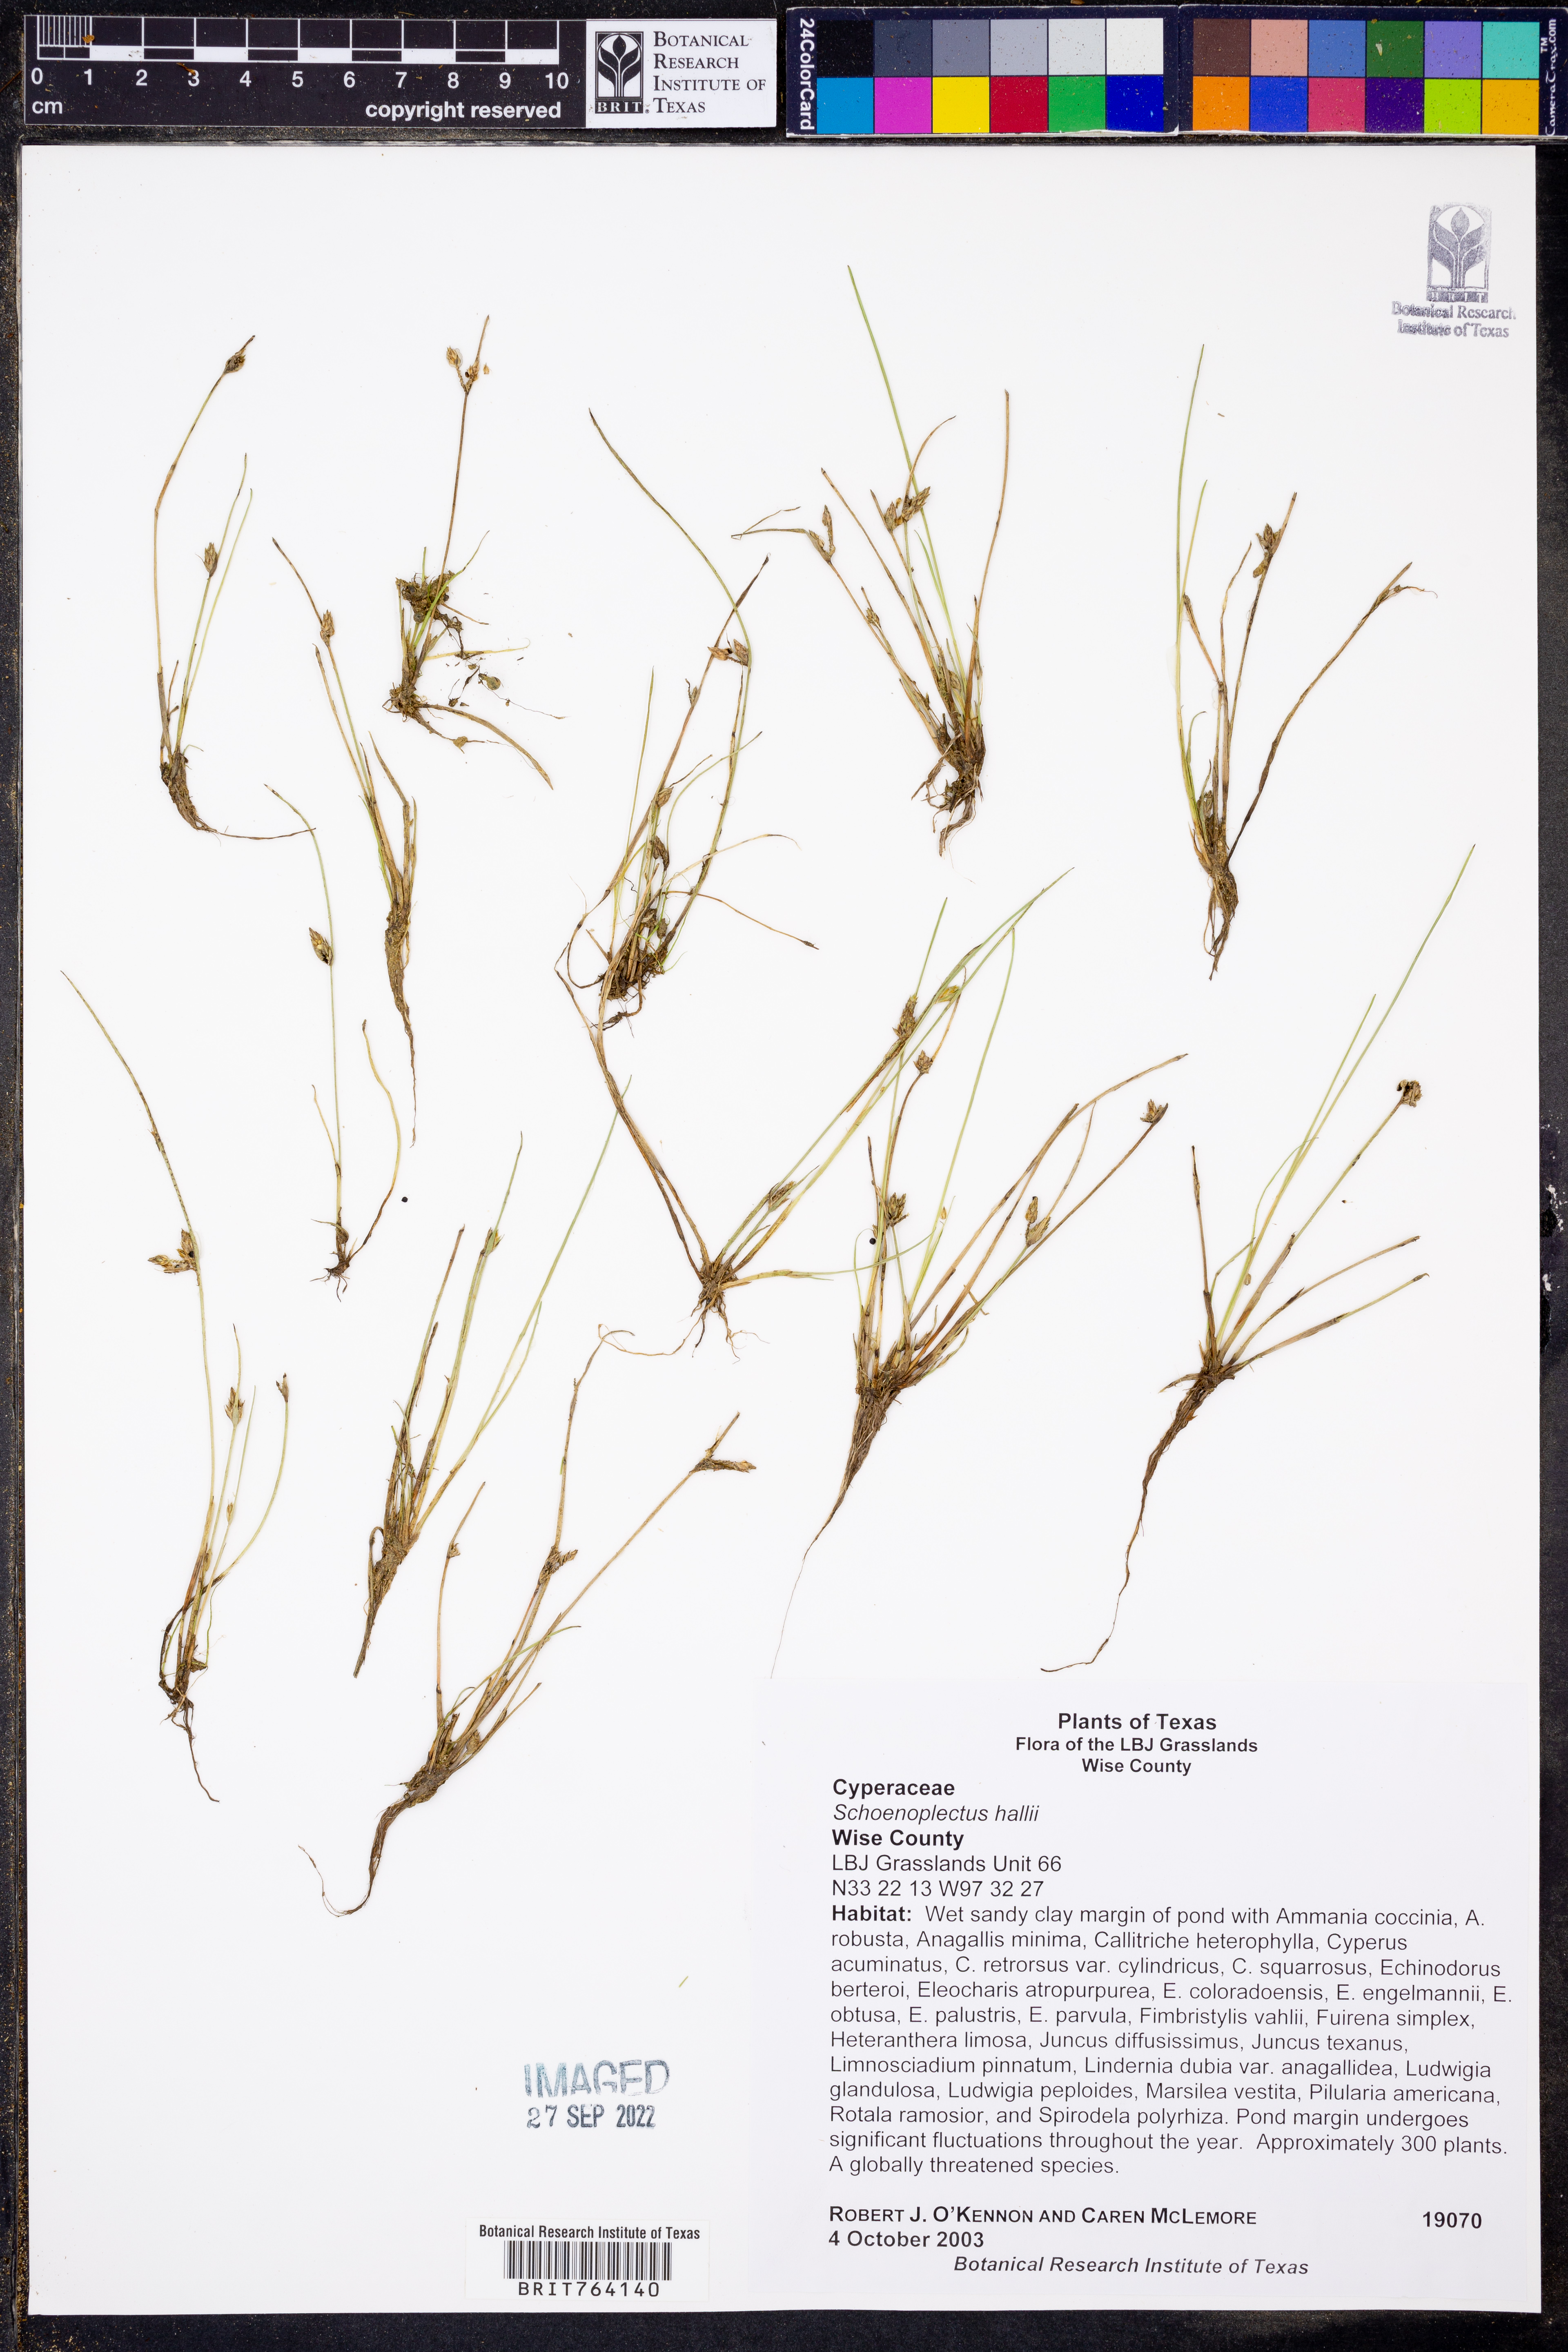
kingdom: Plantae
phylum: Tracheophyta
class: Liliopsida
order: Poales
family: Cyperaceae
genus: Schoenoplectiella
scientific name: Schoenoplectiella hallii
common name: Hall's bullrush
